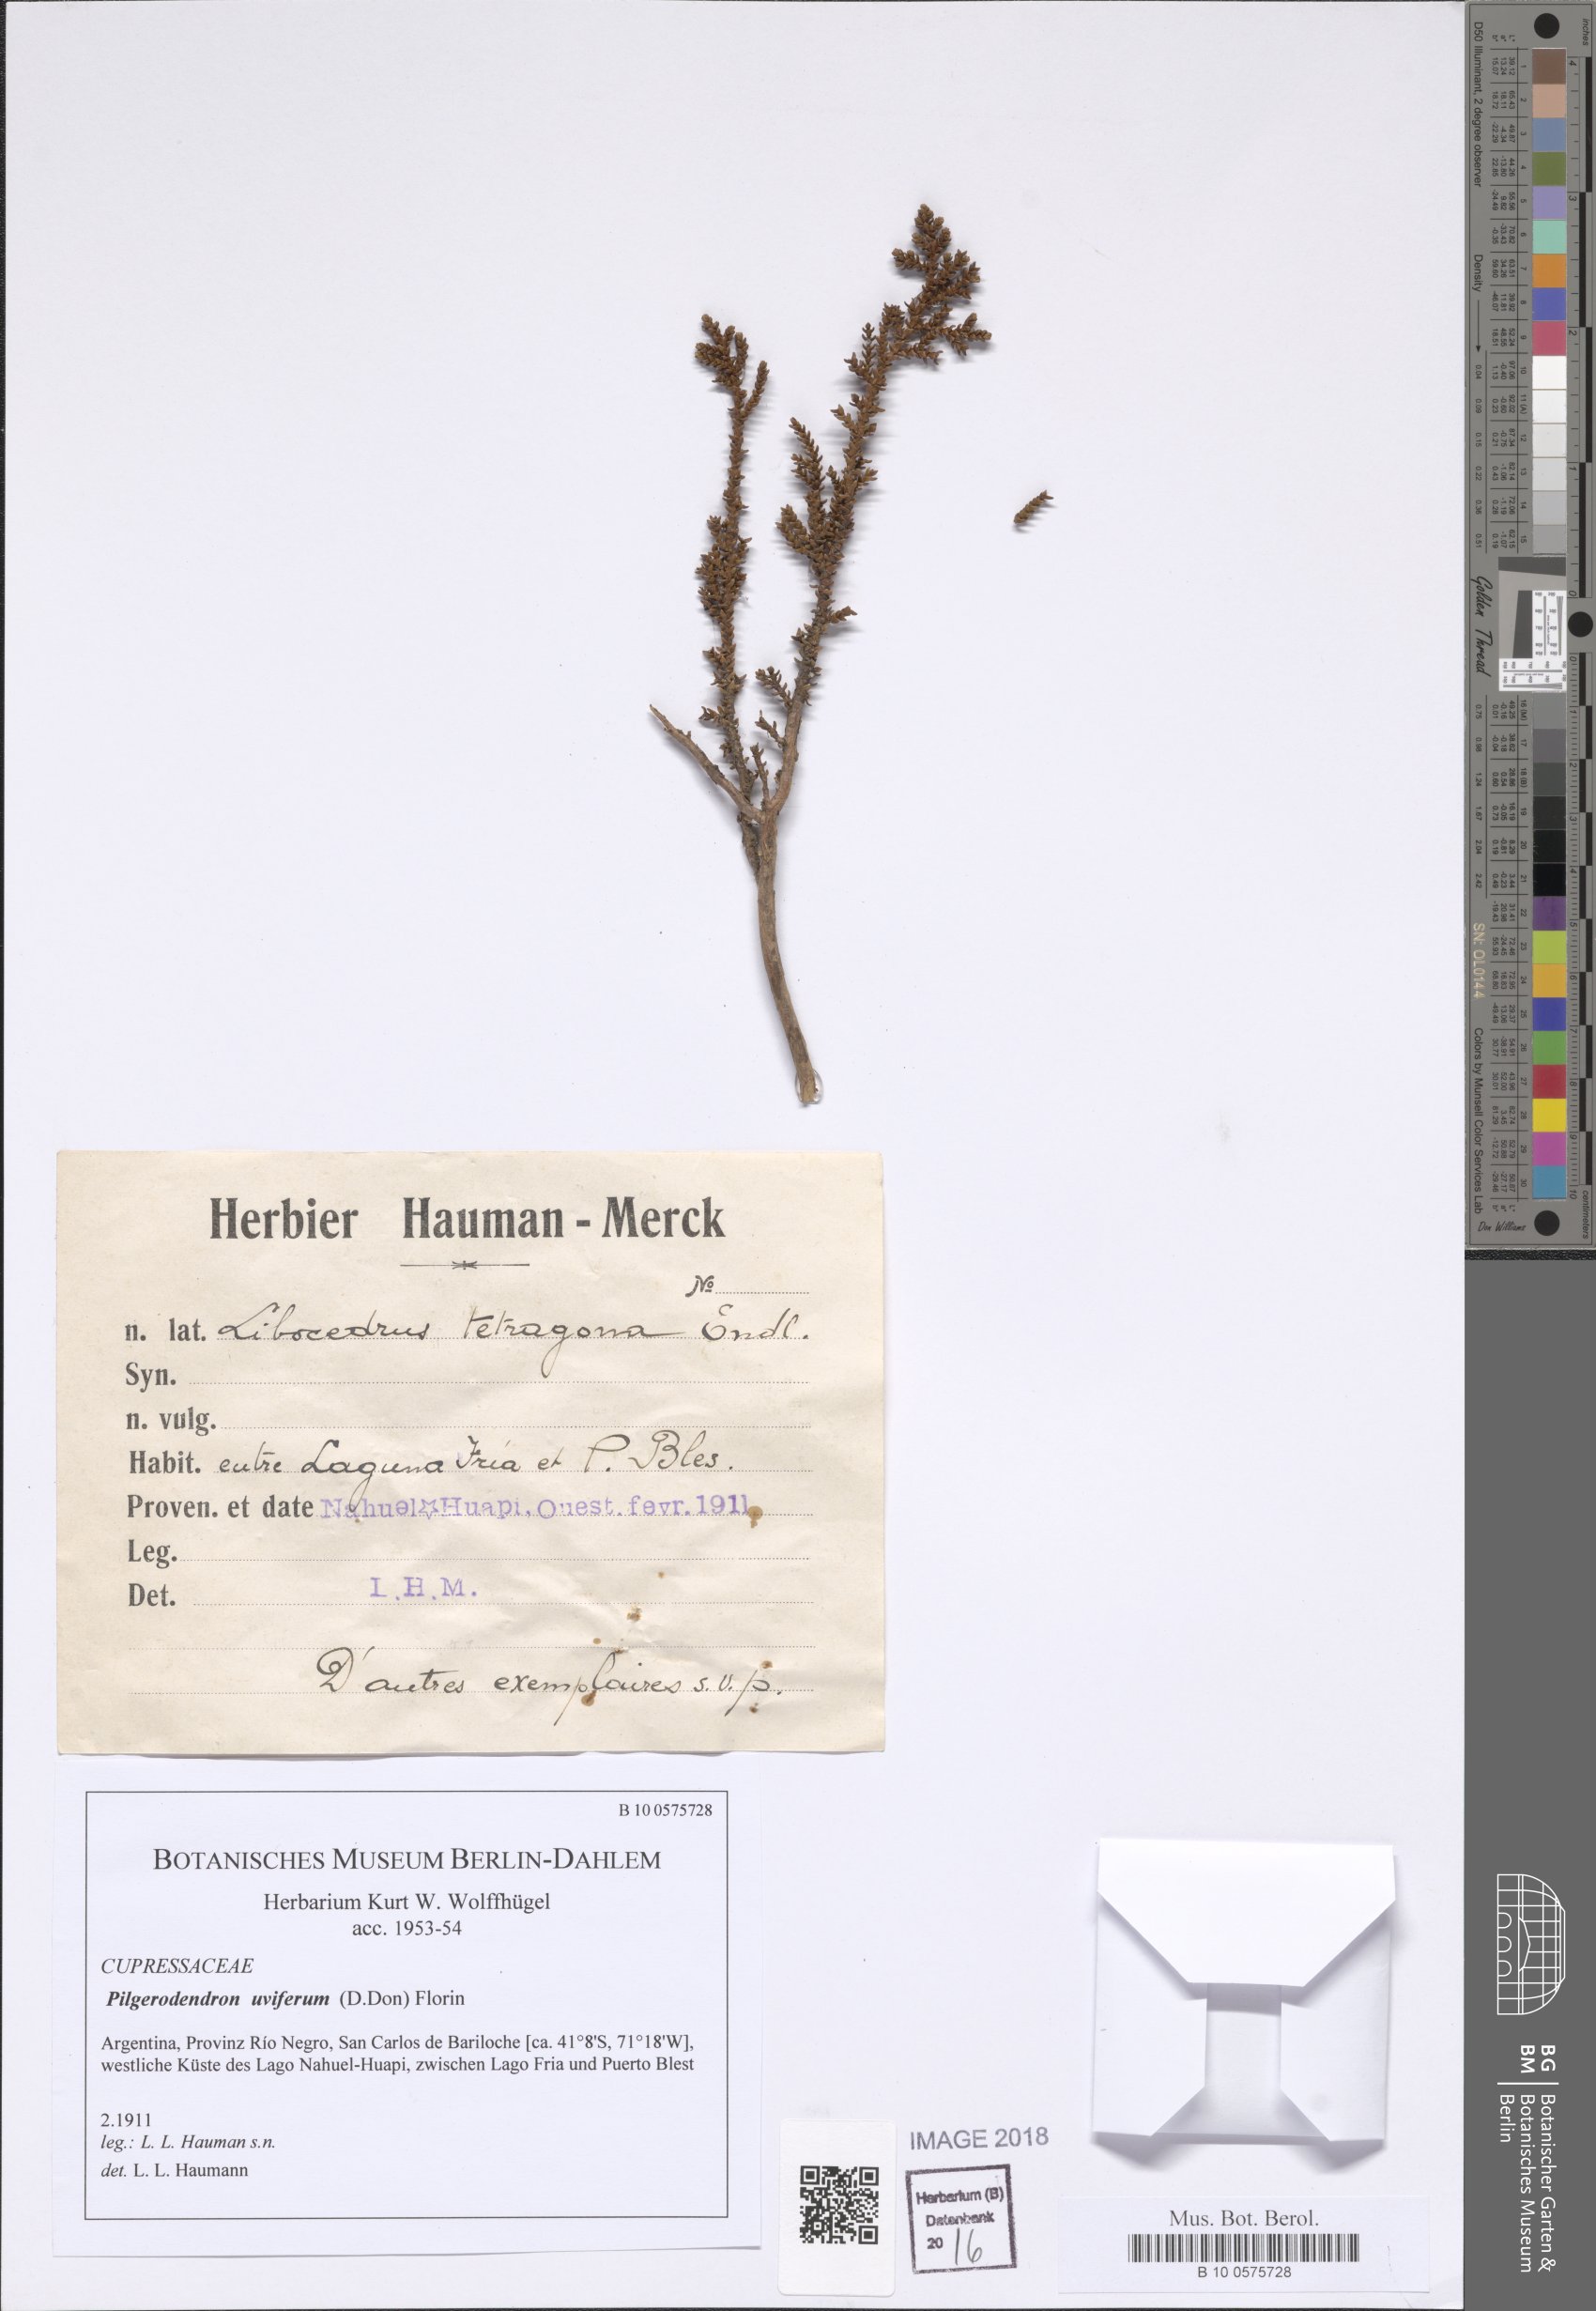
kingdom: Plantae
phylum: Tracheophyta
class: Pinopsida
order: Pinales
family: Cupressaceae
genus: Pilgerodendron
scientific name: Pilgerodendron uviferum
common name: Guaitecas cypress
